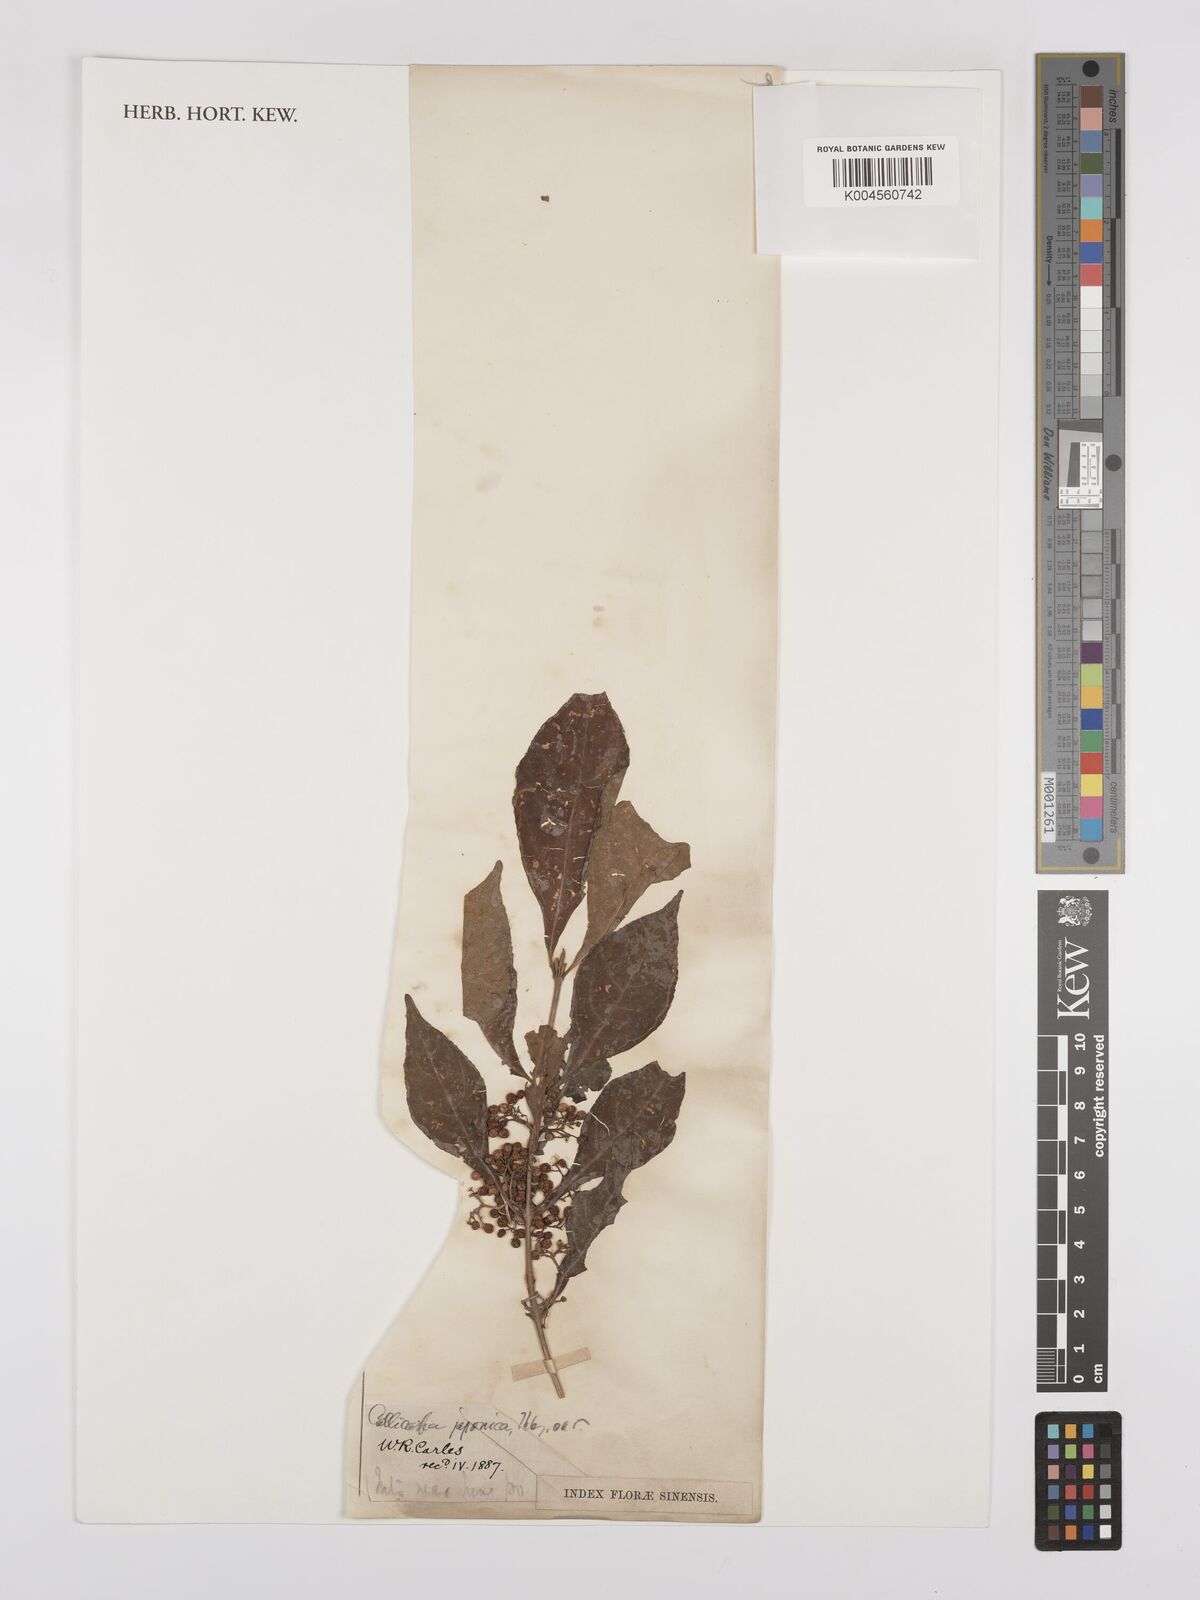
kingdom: Plantae
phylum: Tracheophyta
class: Magnoliopsida
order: Lamiales
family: Lamiaceae
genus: Callicarpa
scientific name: Callicarpa japonica
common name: Japanese beauty-berry
